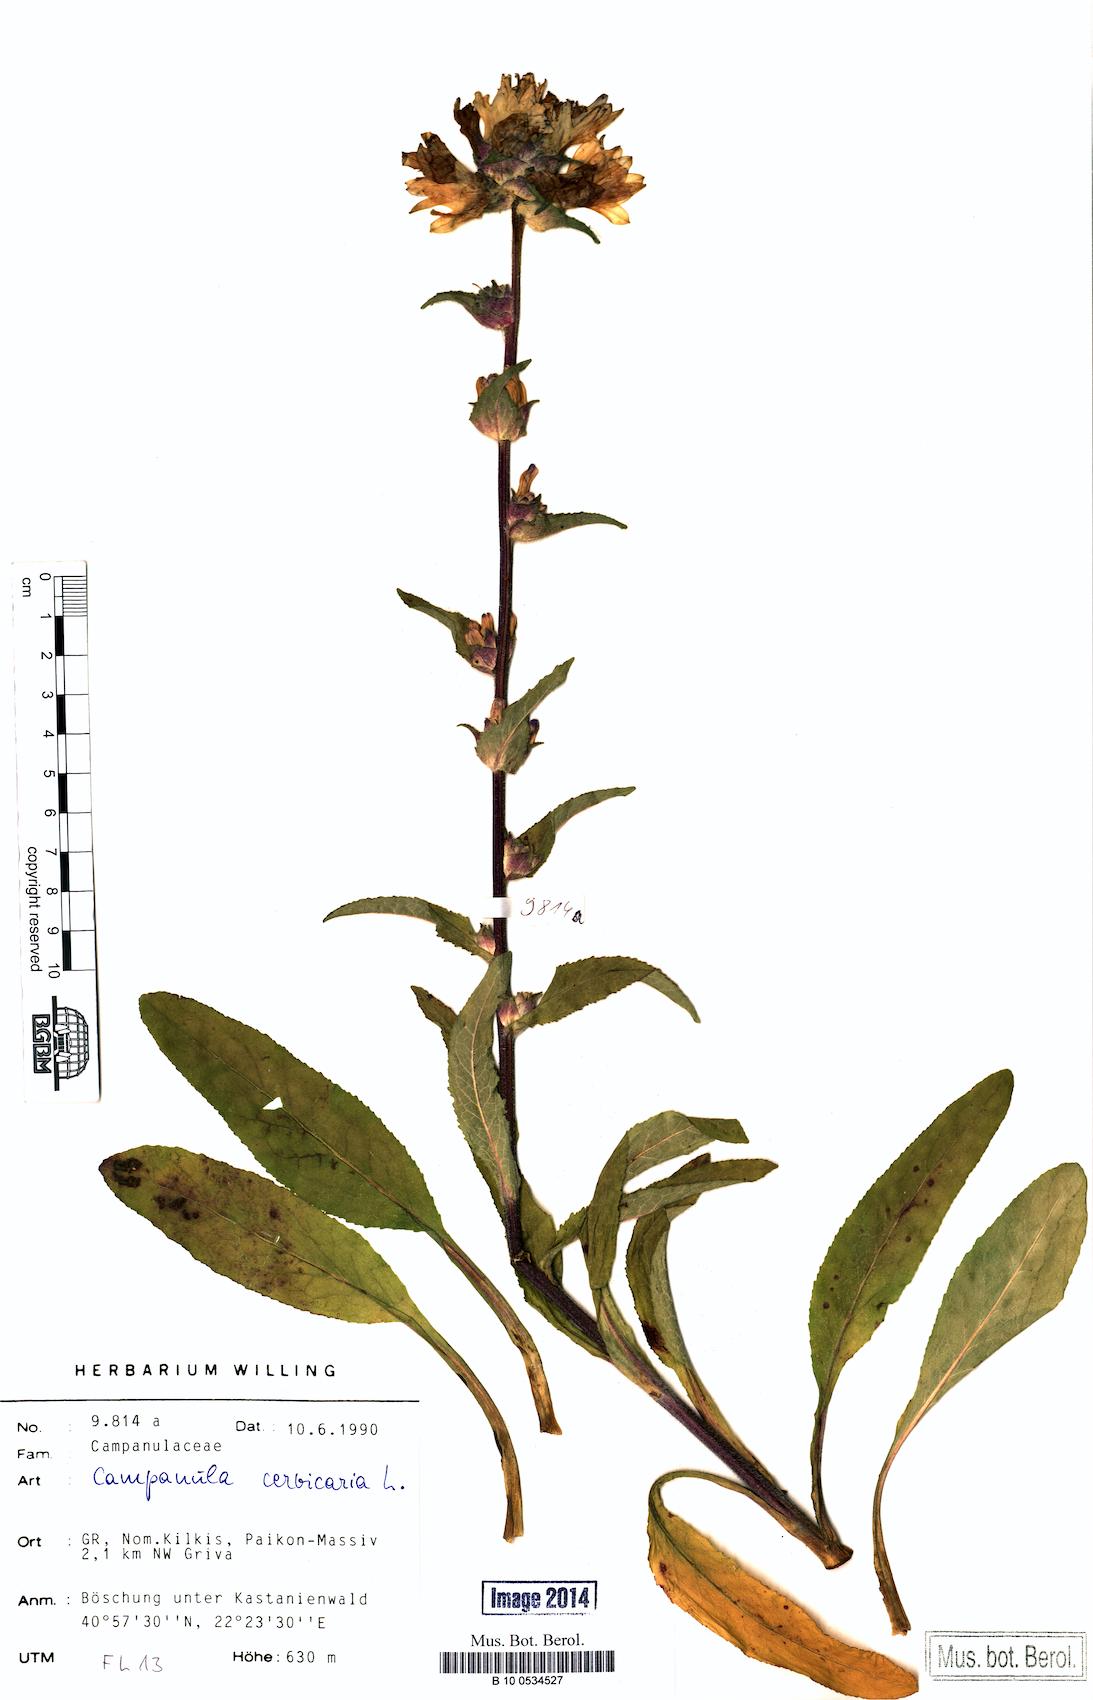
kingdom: Plantae
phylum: Tracheophyta
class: Magnoliopsida
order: Asterales
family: Campanulaceae
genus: Campanula
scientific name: Campanula cervicaria
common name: Bristly bellflower
